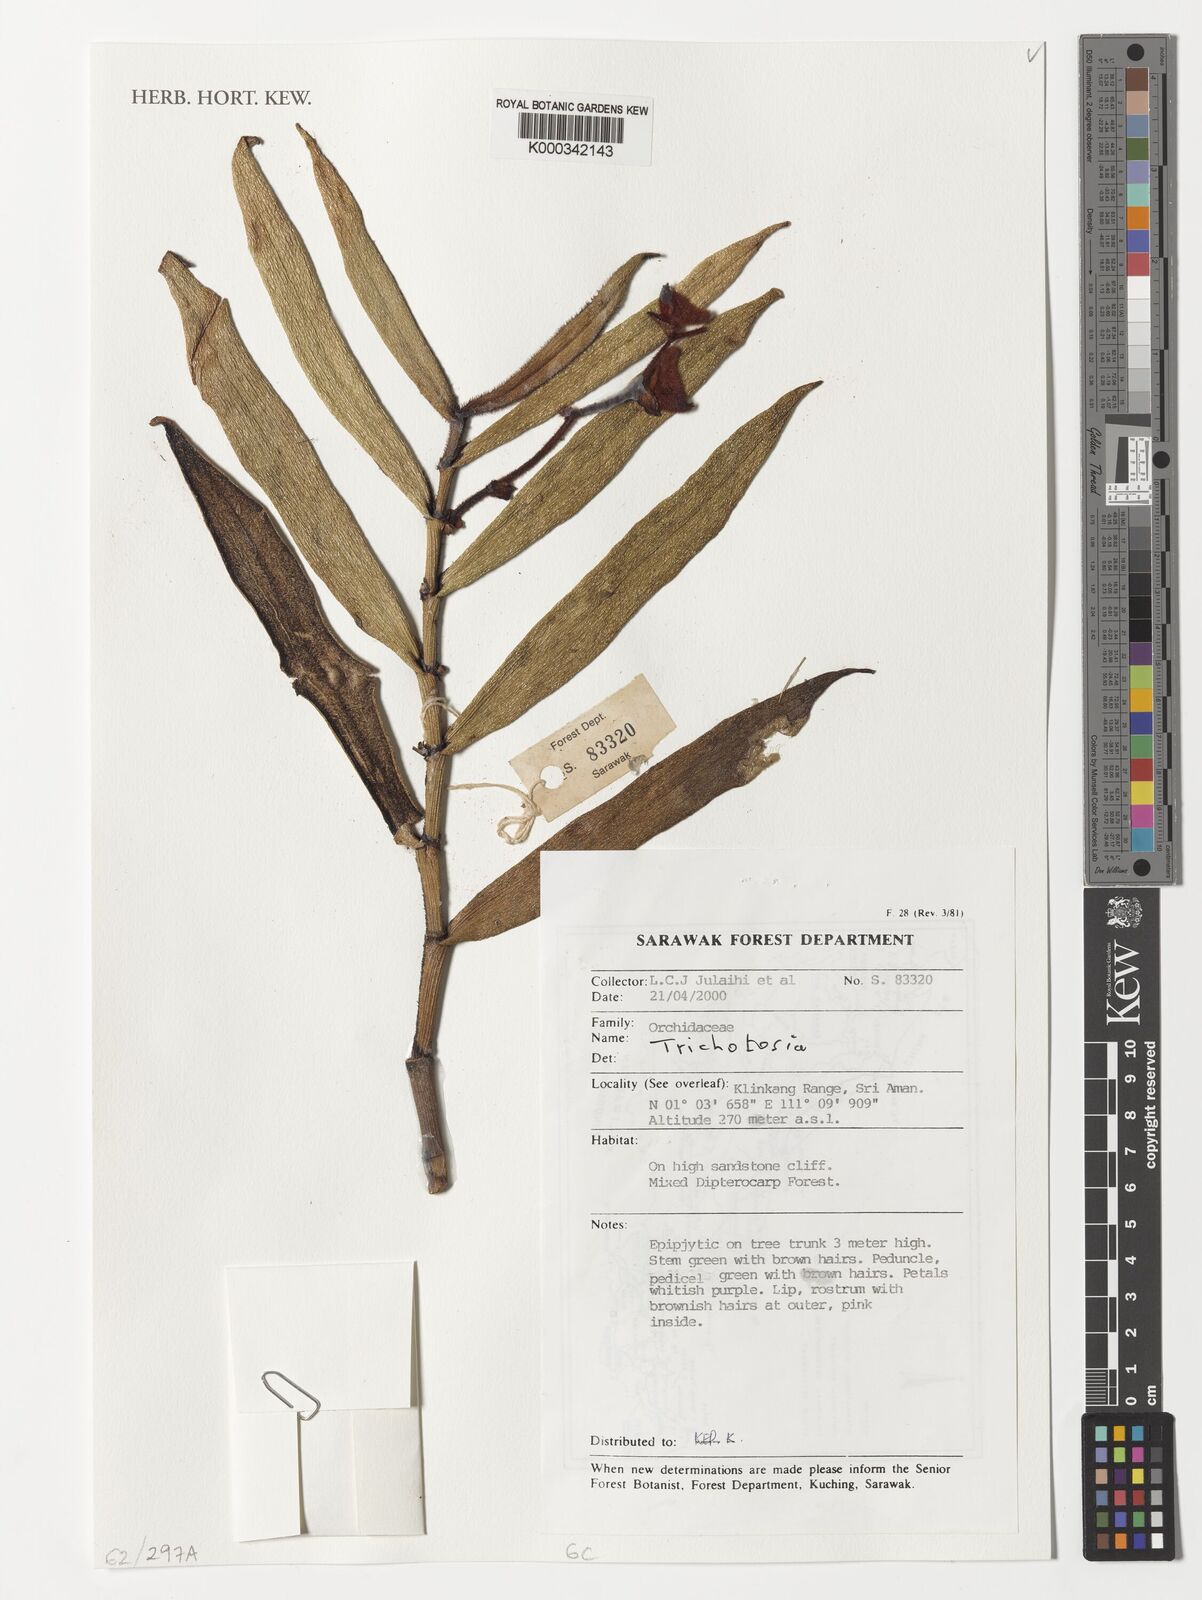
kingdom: Plantae
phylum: Tracheophyta
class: Liliopsida
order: Asparagales
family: Orchidaceae
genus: Trichotosia
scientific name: Trichotosia
